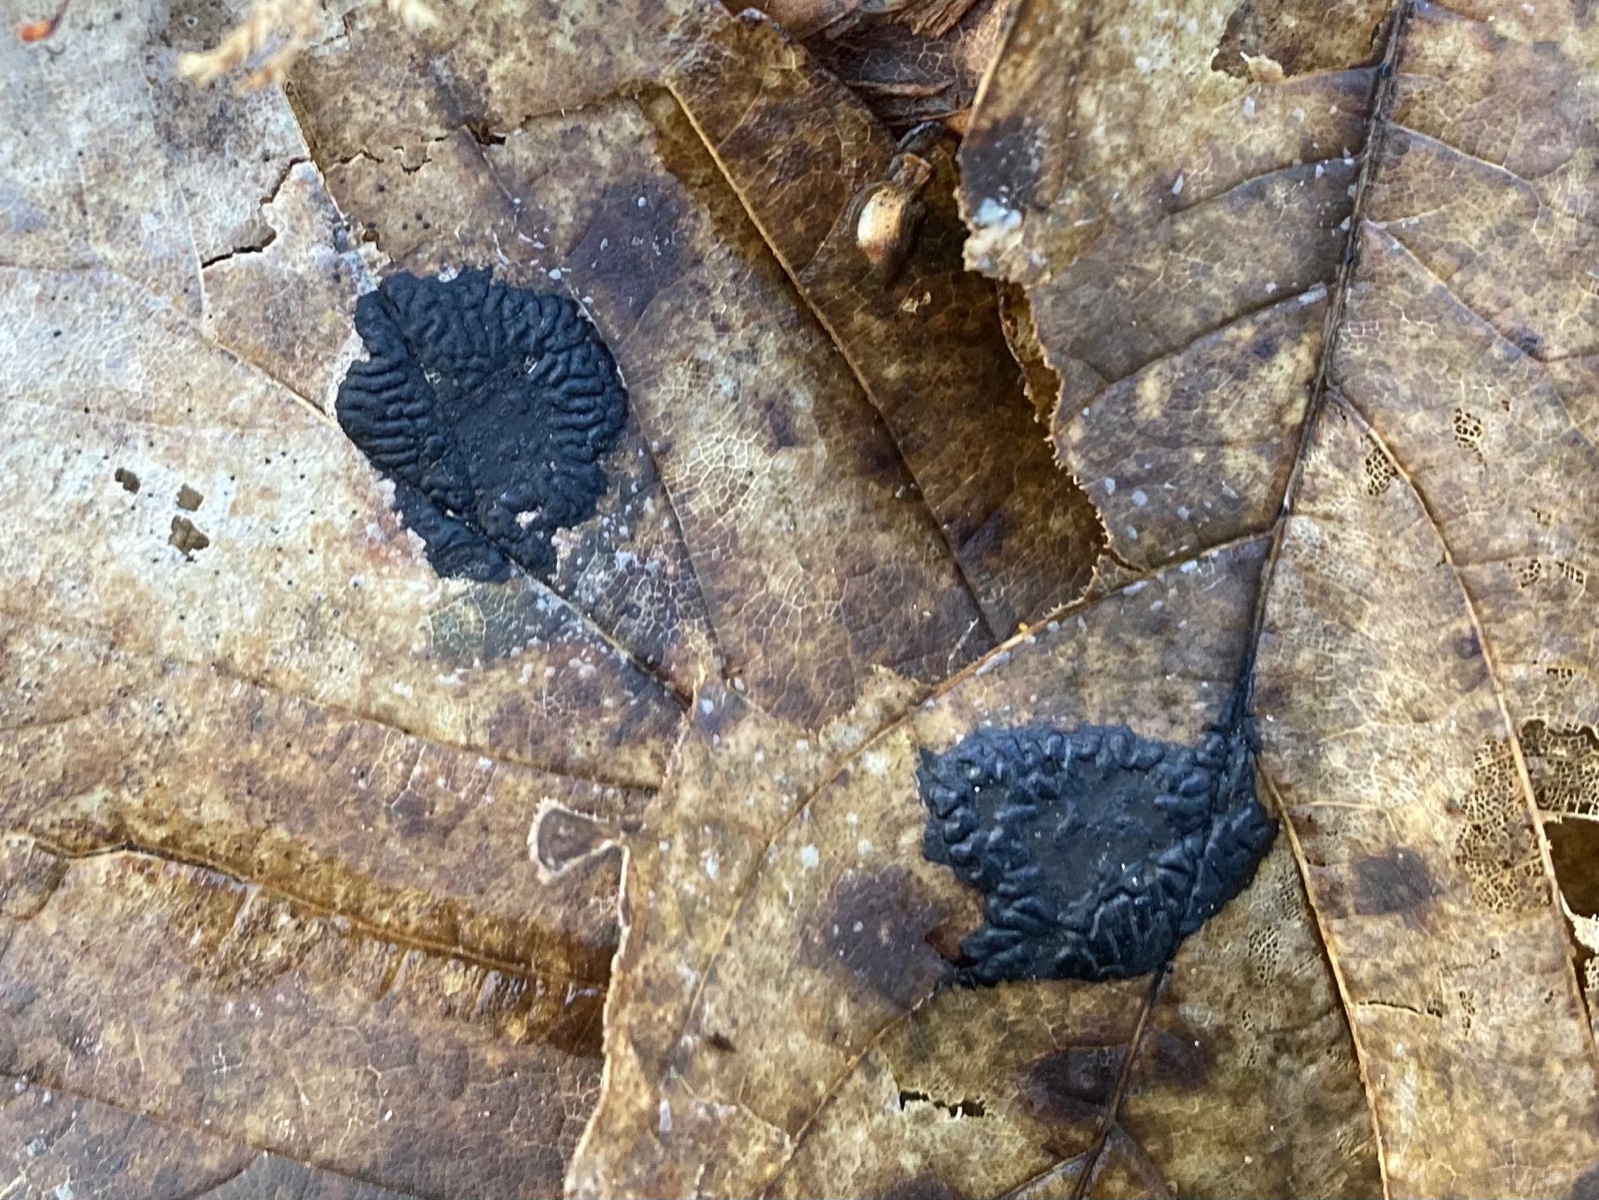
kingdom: Fungi
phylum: Ascomycota
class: Leotiomycetes
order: Rhytismatales
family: Rhytismataceae
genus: Rhytisma
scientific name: Rhytisma acerinum
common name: ahorn-rynkeplet
